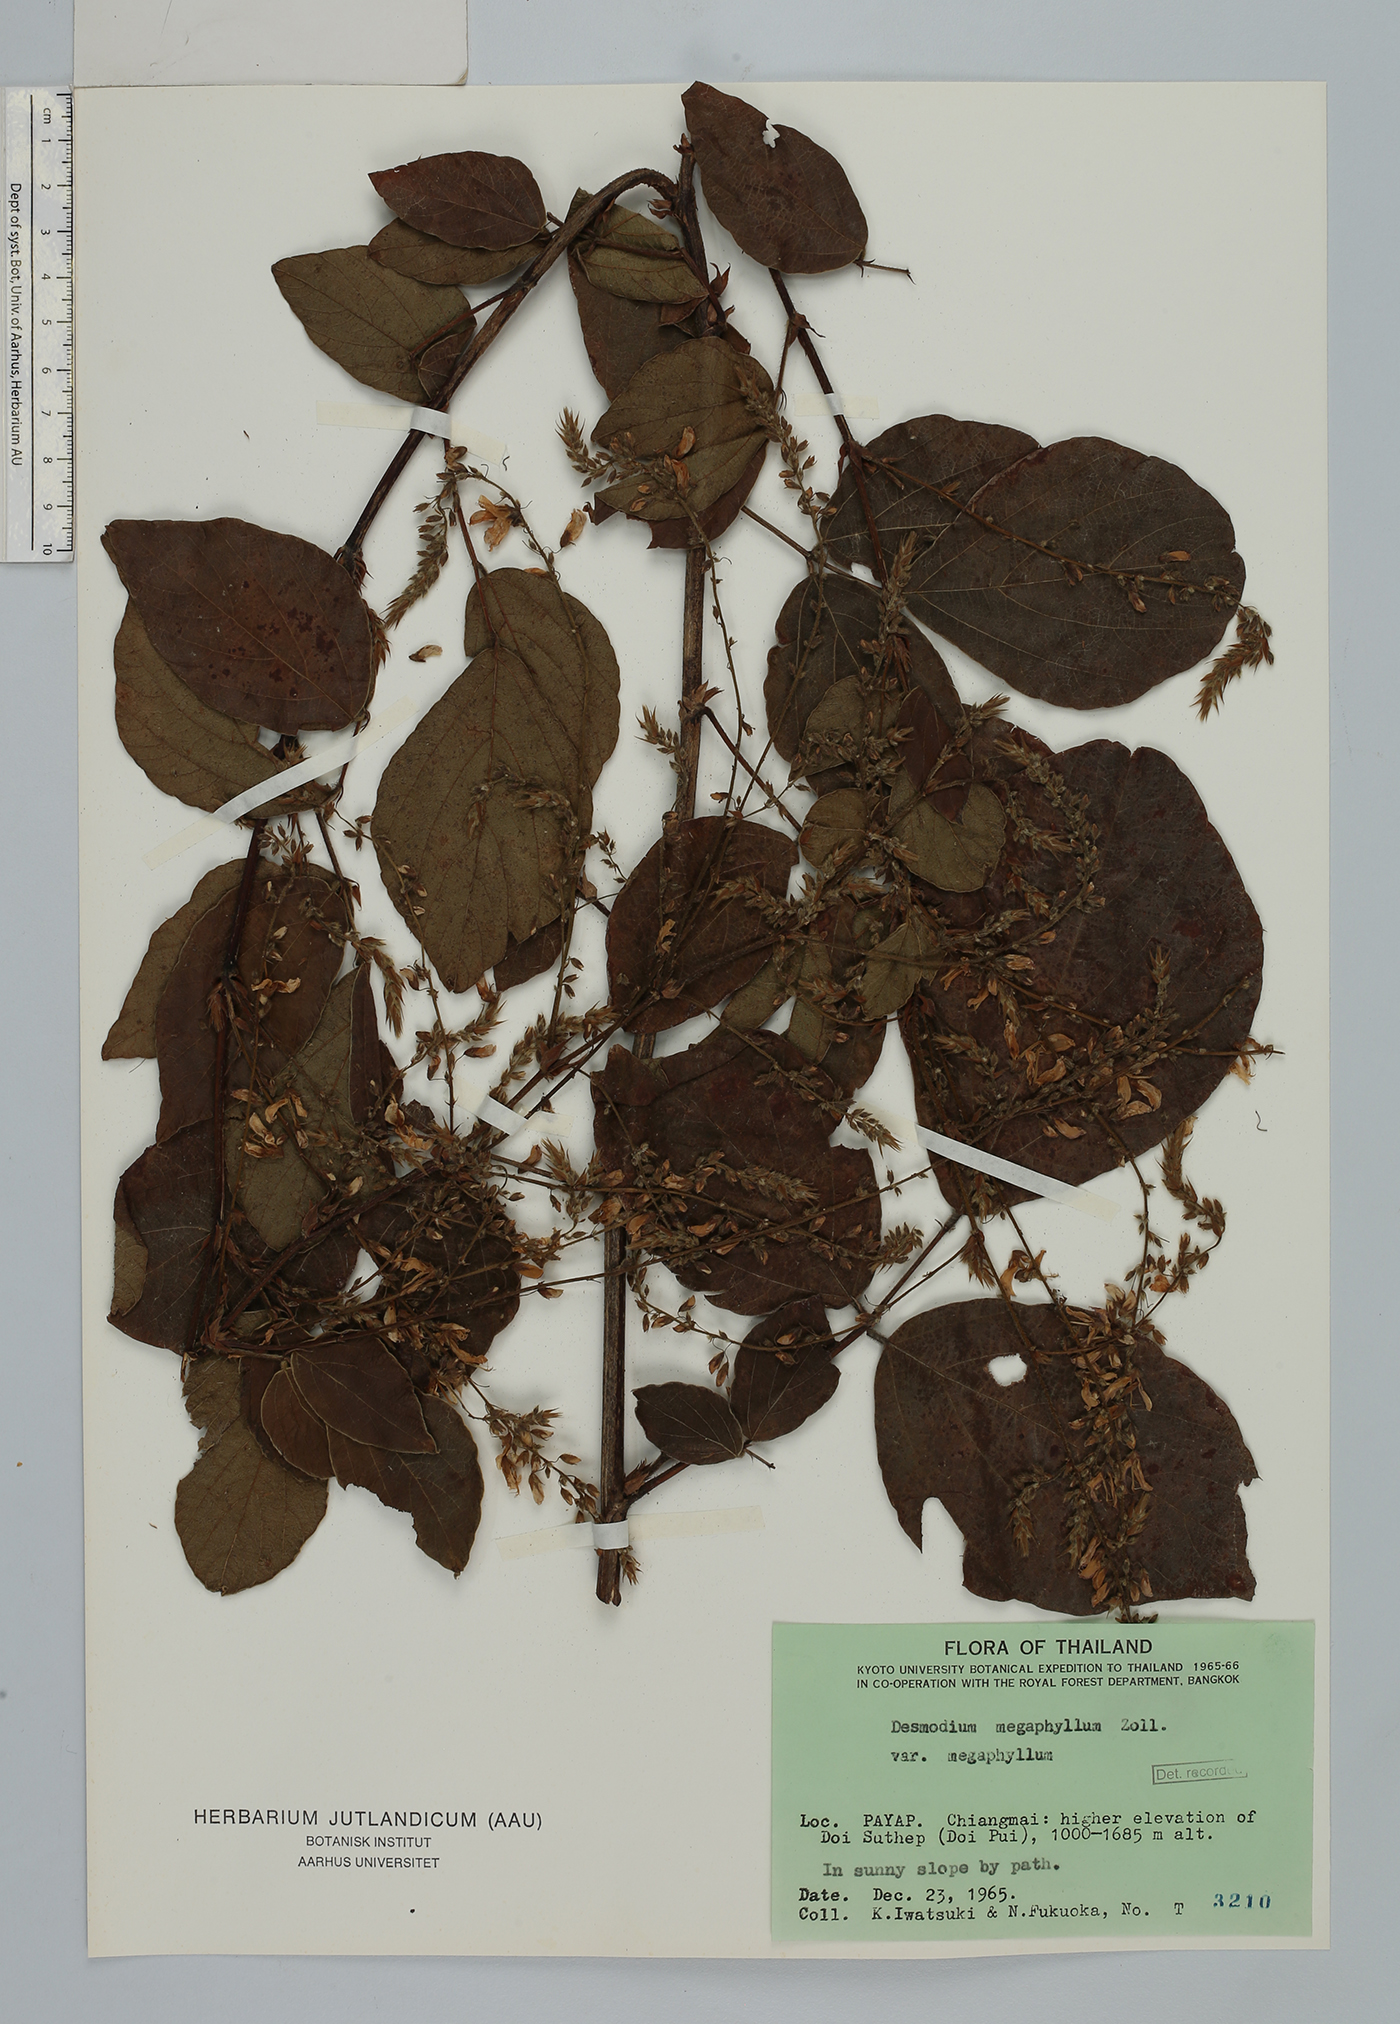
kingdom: Plantae
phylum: Tracheophyta
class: Magnoliopsida
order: Fabales
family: Fabaceae
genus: Puhuaea
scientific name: Puhuaea megaphylla
